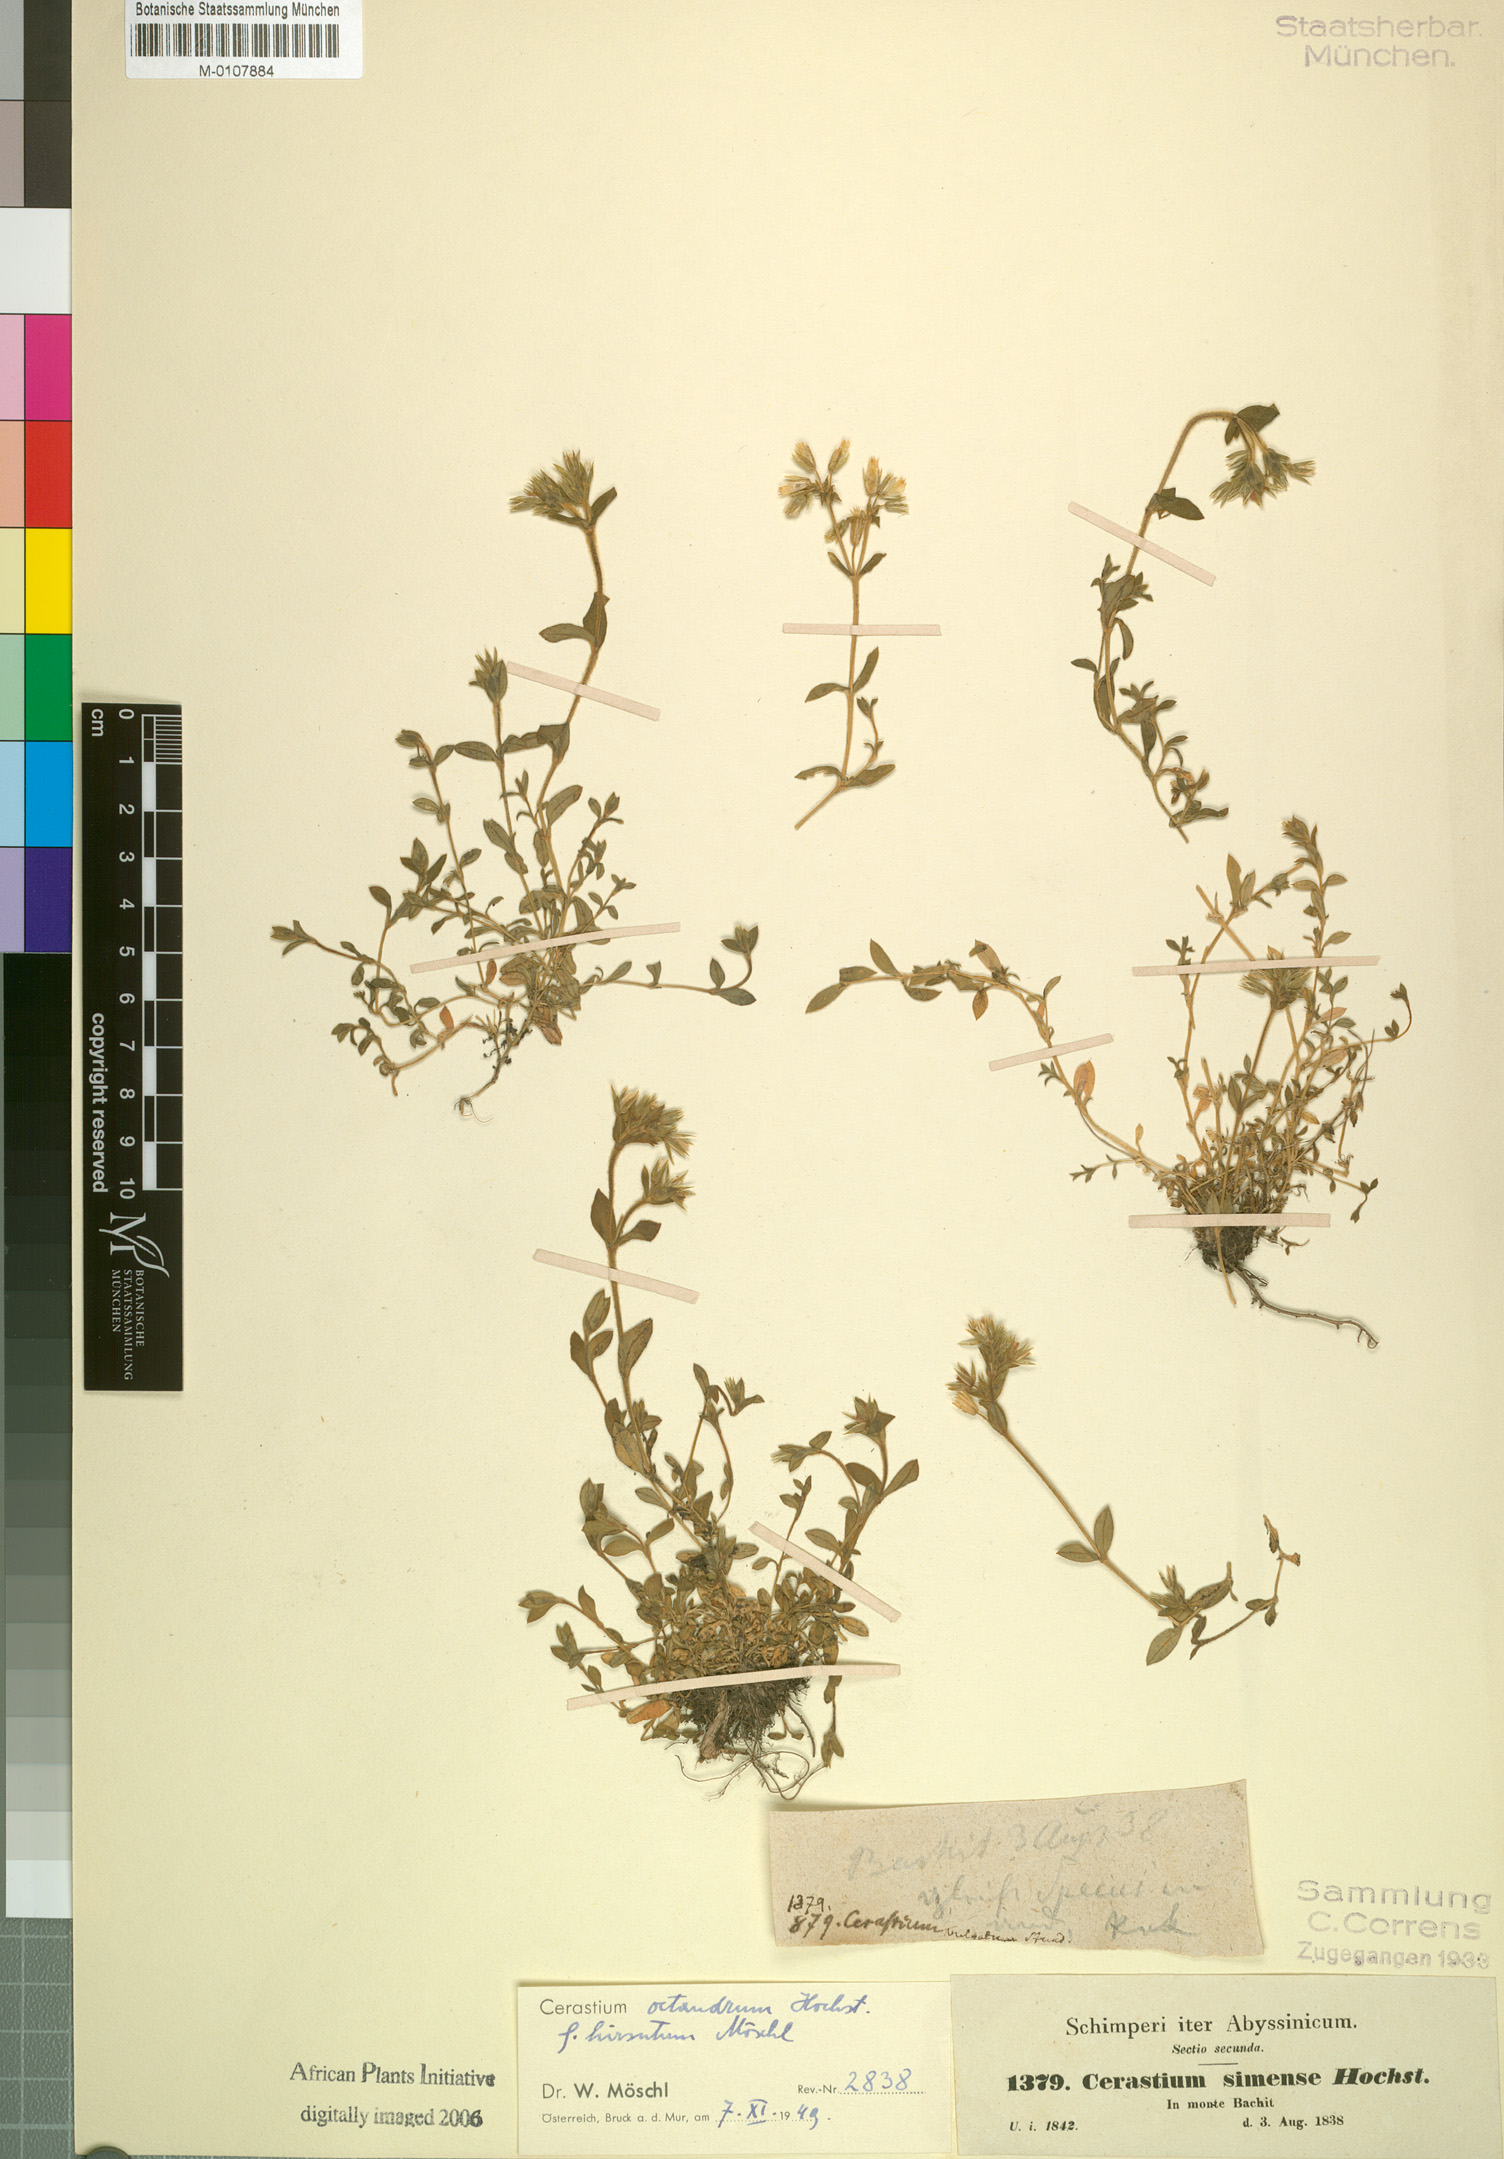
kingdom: Plantae
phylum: Tracheophyta
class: Magnoliopsida
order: Caryophyllales
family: Caryophyllaceae
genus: Cerastium
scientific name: Cerastium octandrum
